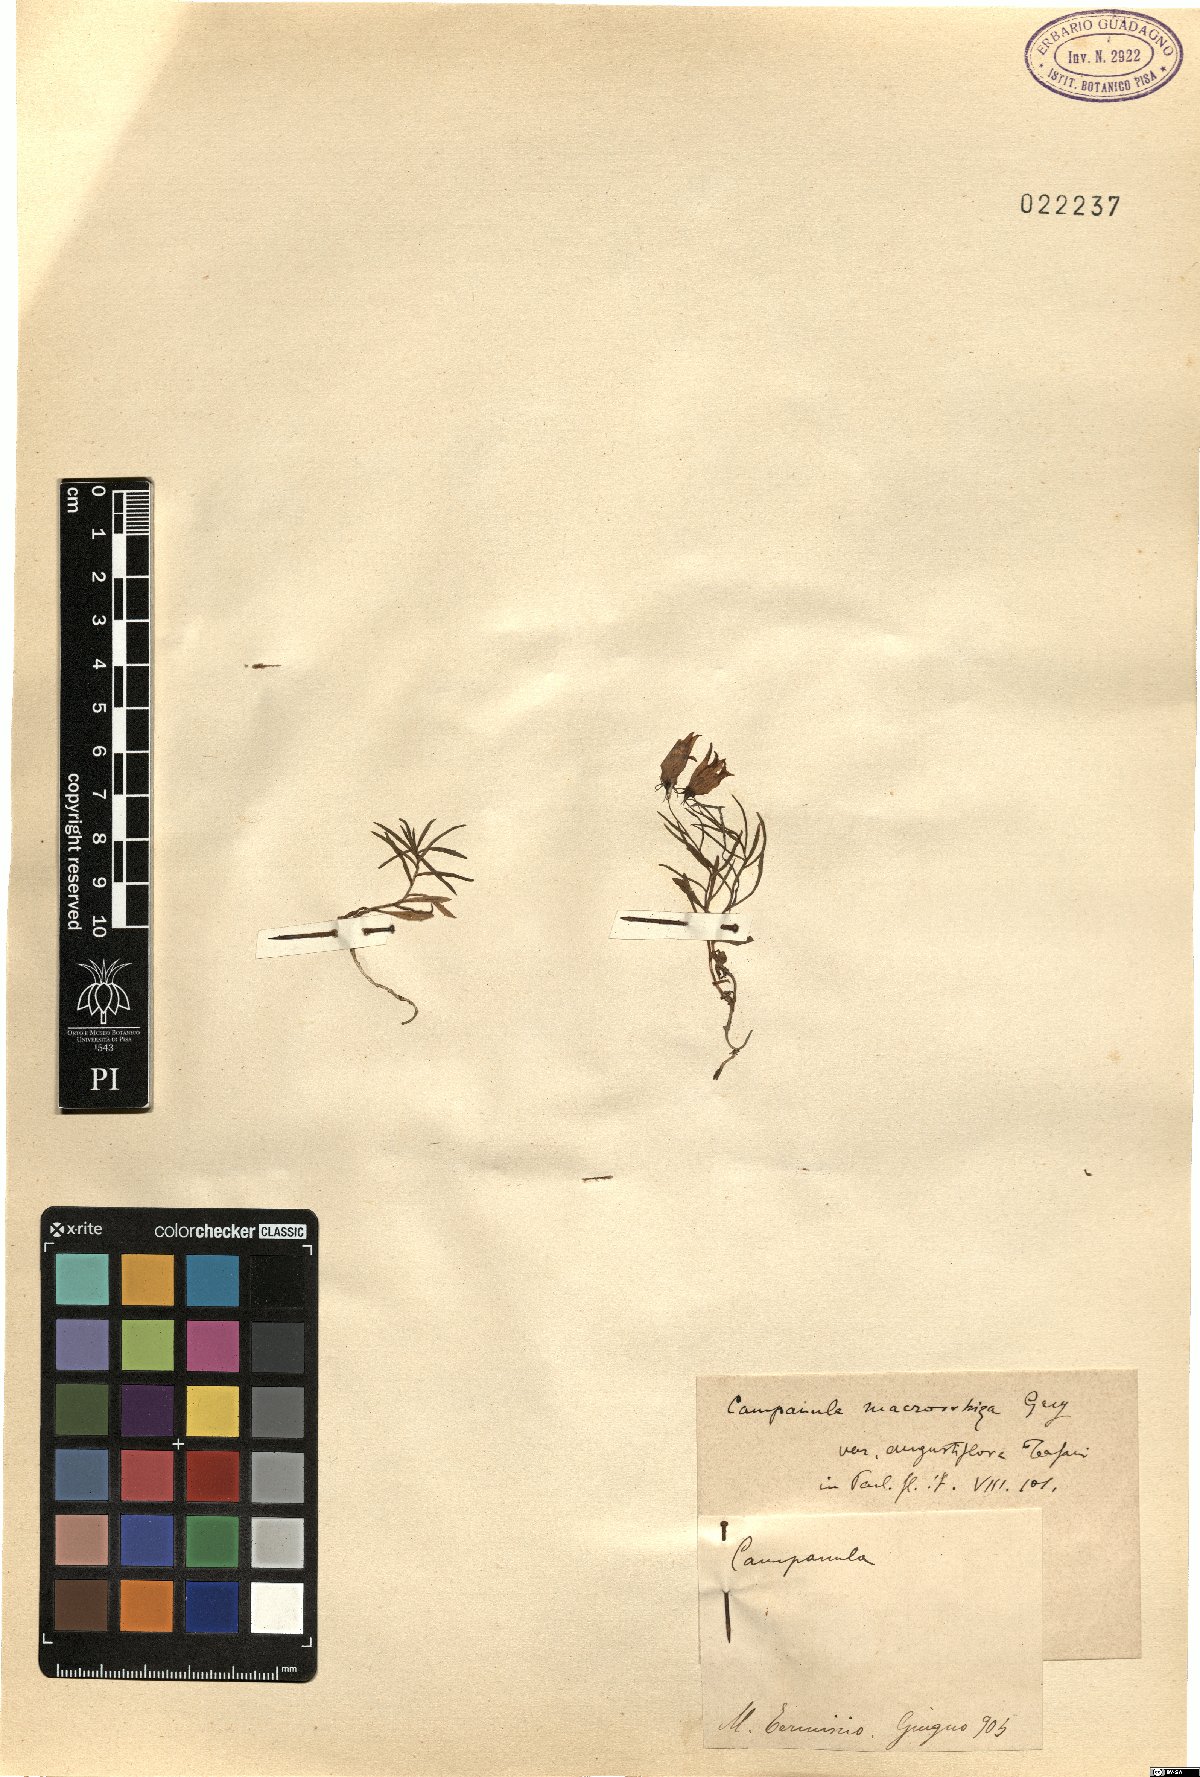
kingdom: Plantae
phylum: Tracheophyta
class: Magnoliopsida
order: Asterales
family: Campanulaceae
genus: Campanula
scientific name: Campanula tanfanii
